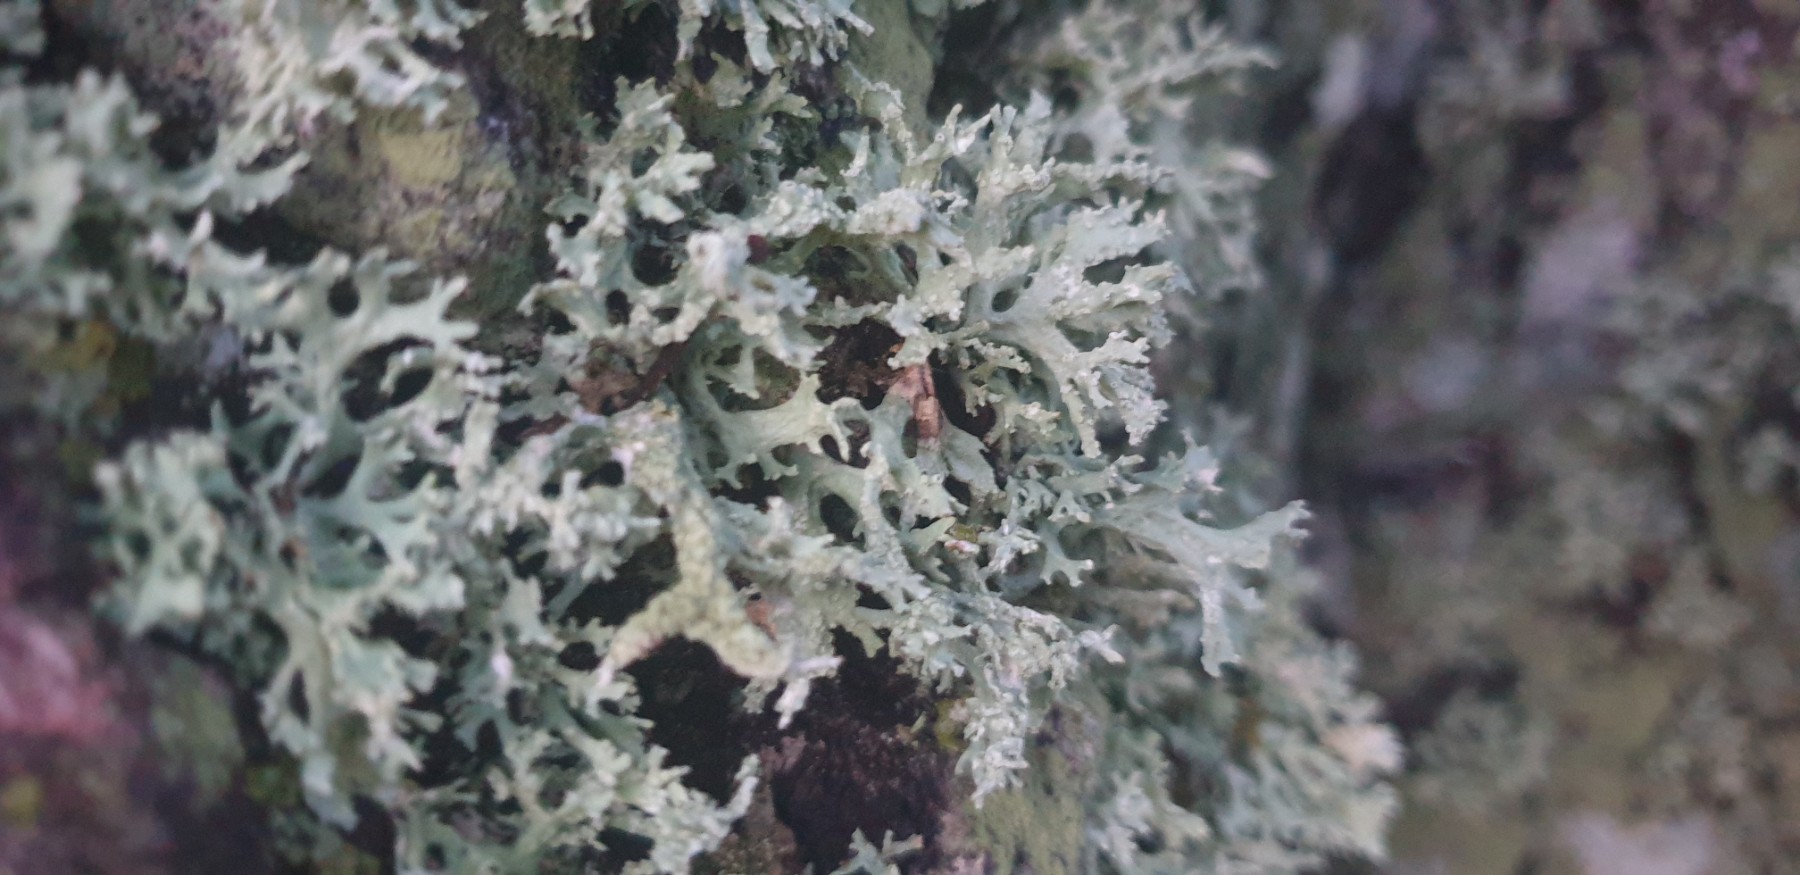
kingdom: Fungi
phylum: Ascomycota
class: Lecanoromycetes
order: Lecanorales
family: Parmeliaceae
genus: Evernia
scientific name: Evernia prunastri
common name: almindelig slåenlav
